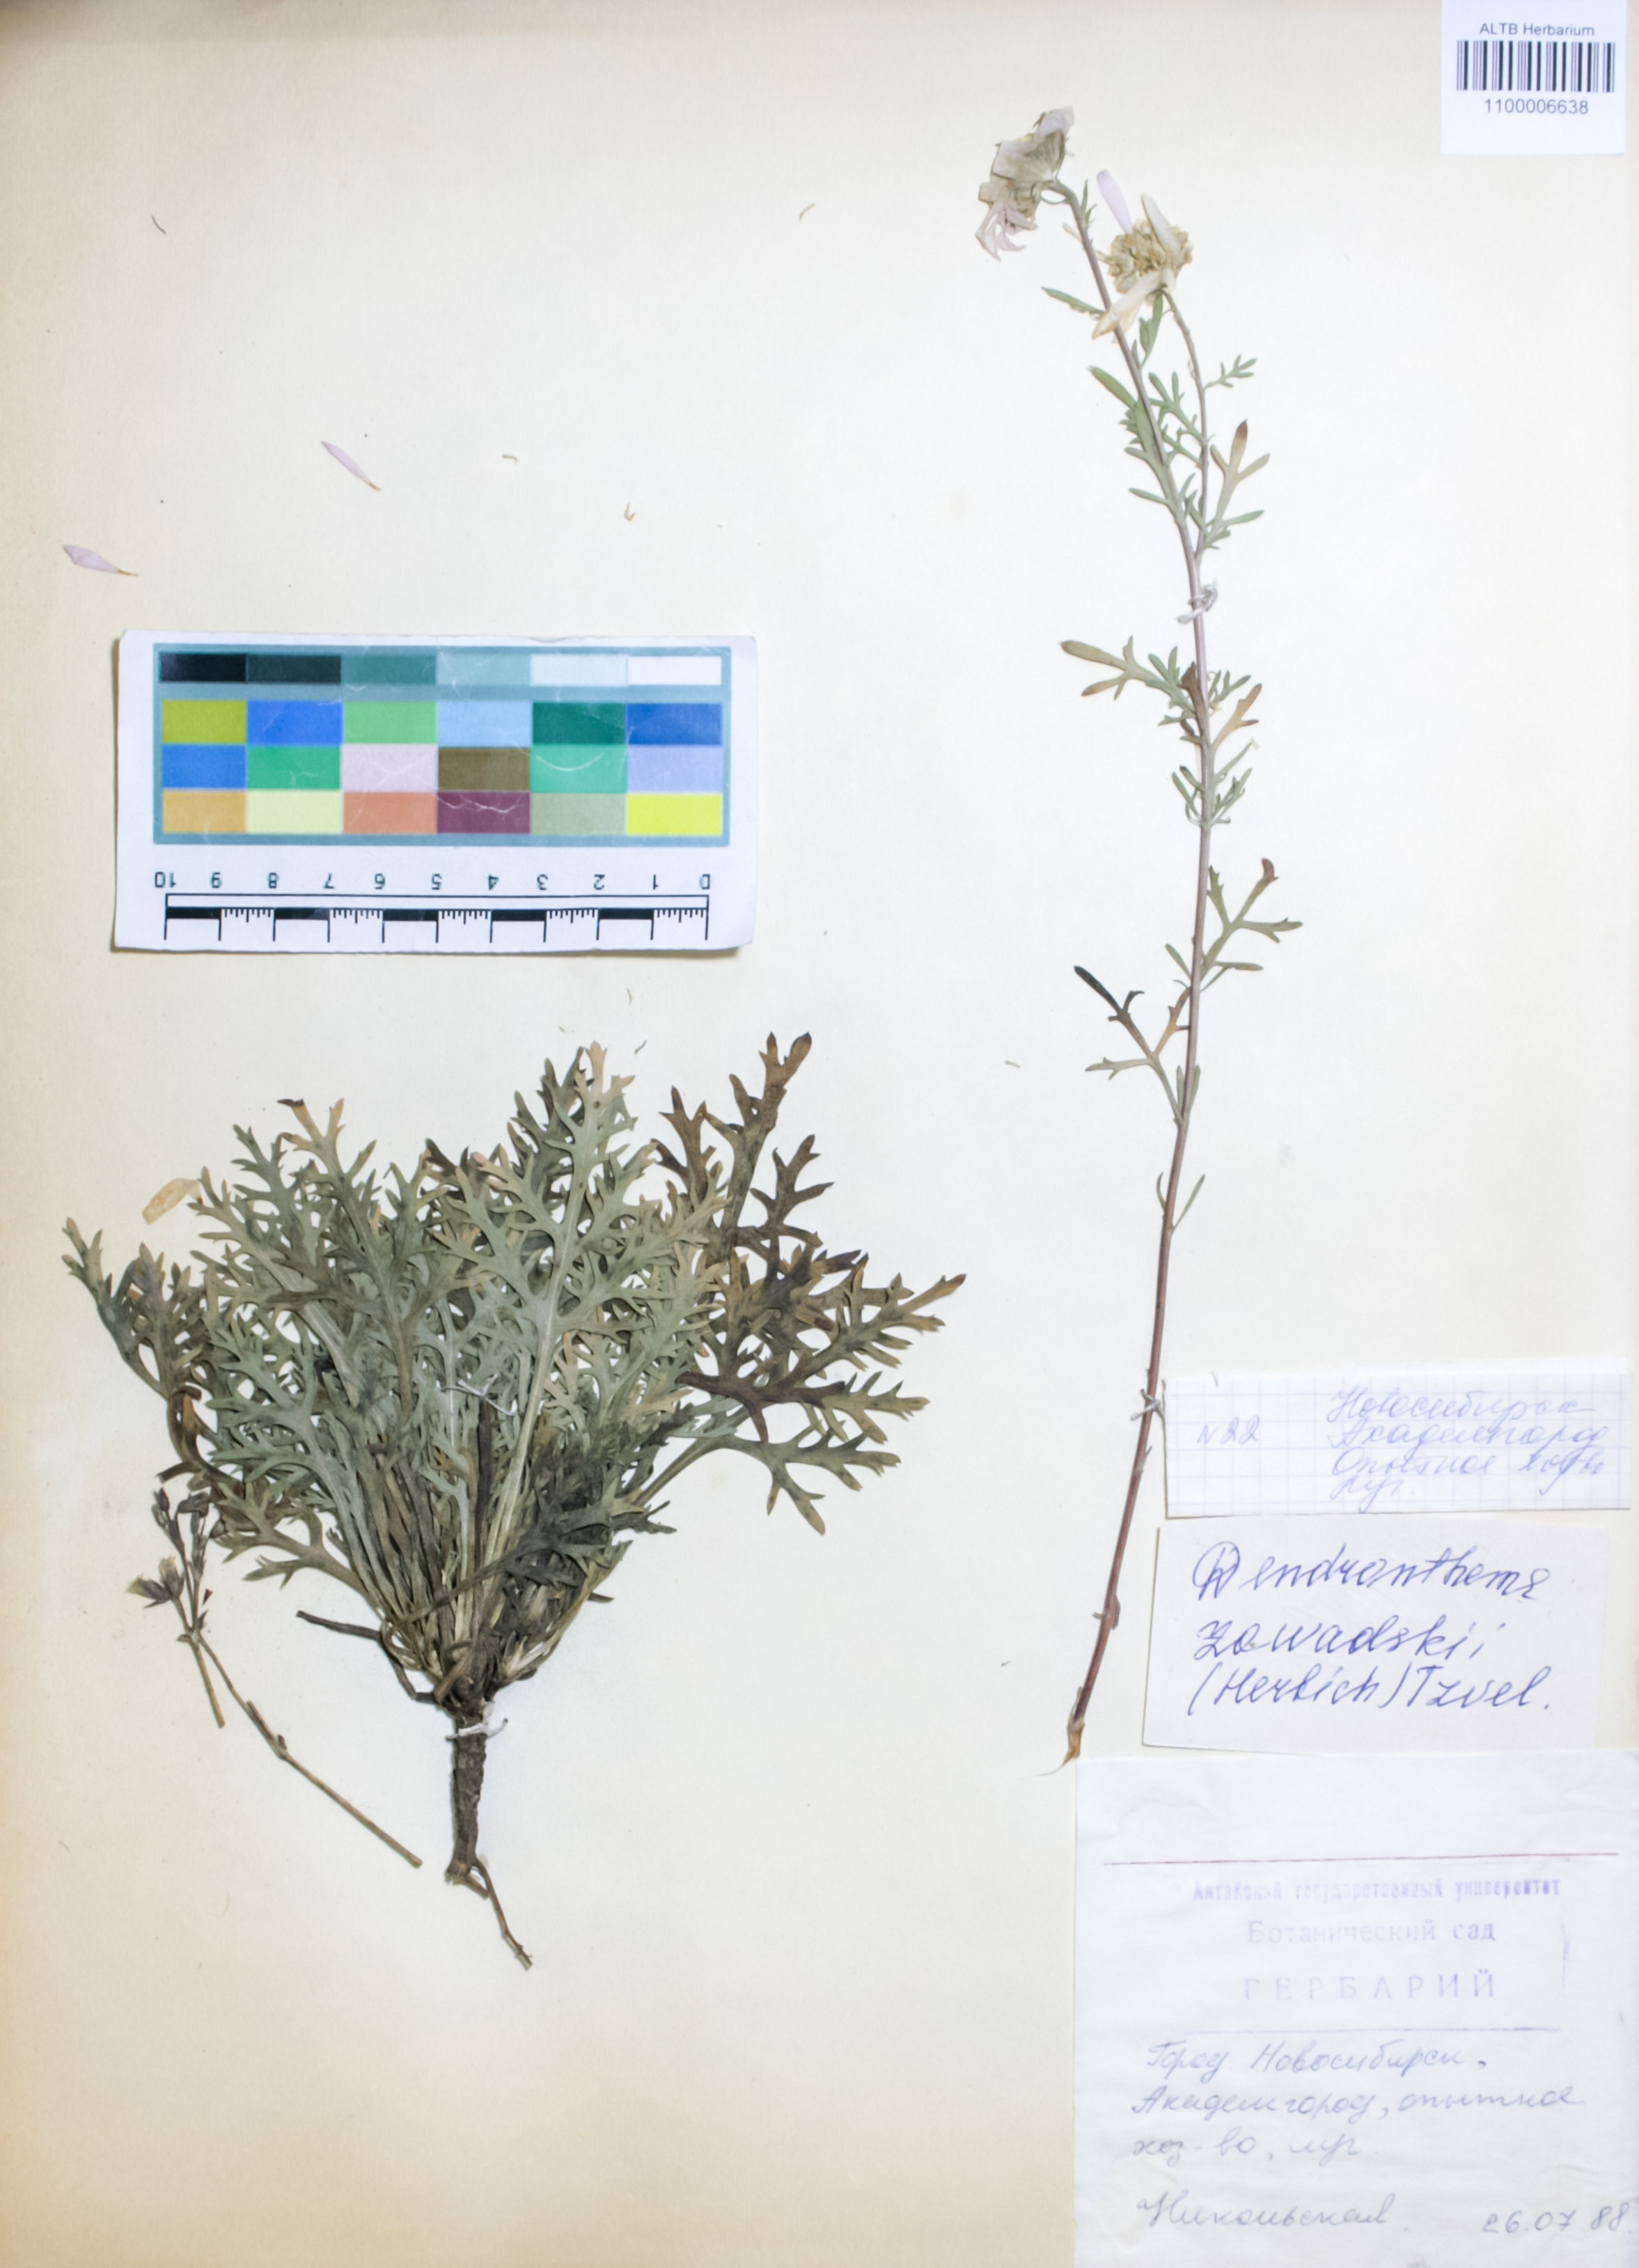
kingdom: Plantae
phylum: Tracheophyta
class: Magnoliopsida
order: Asterales
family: Asteraceae
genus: Chrysanthemum
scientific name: Chrysanthemum zawadzkii
